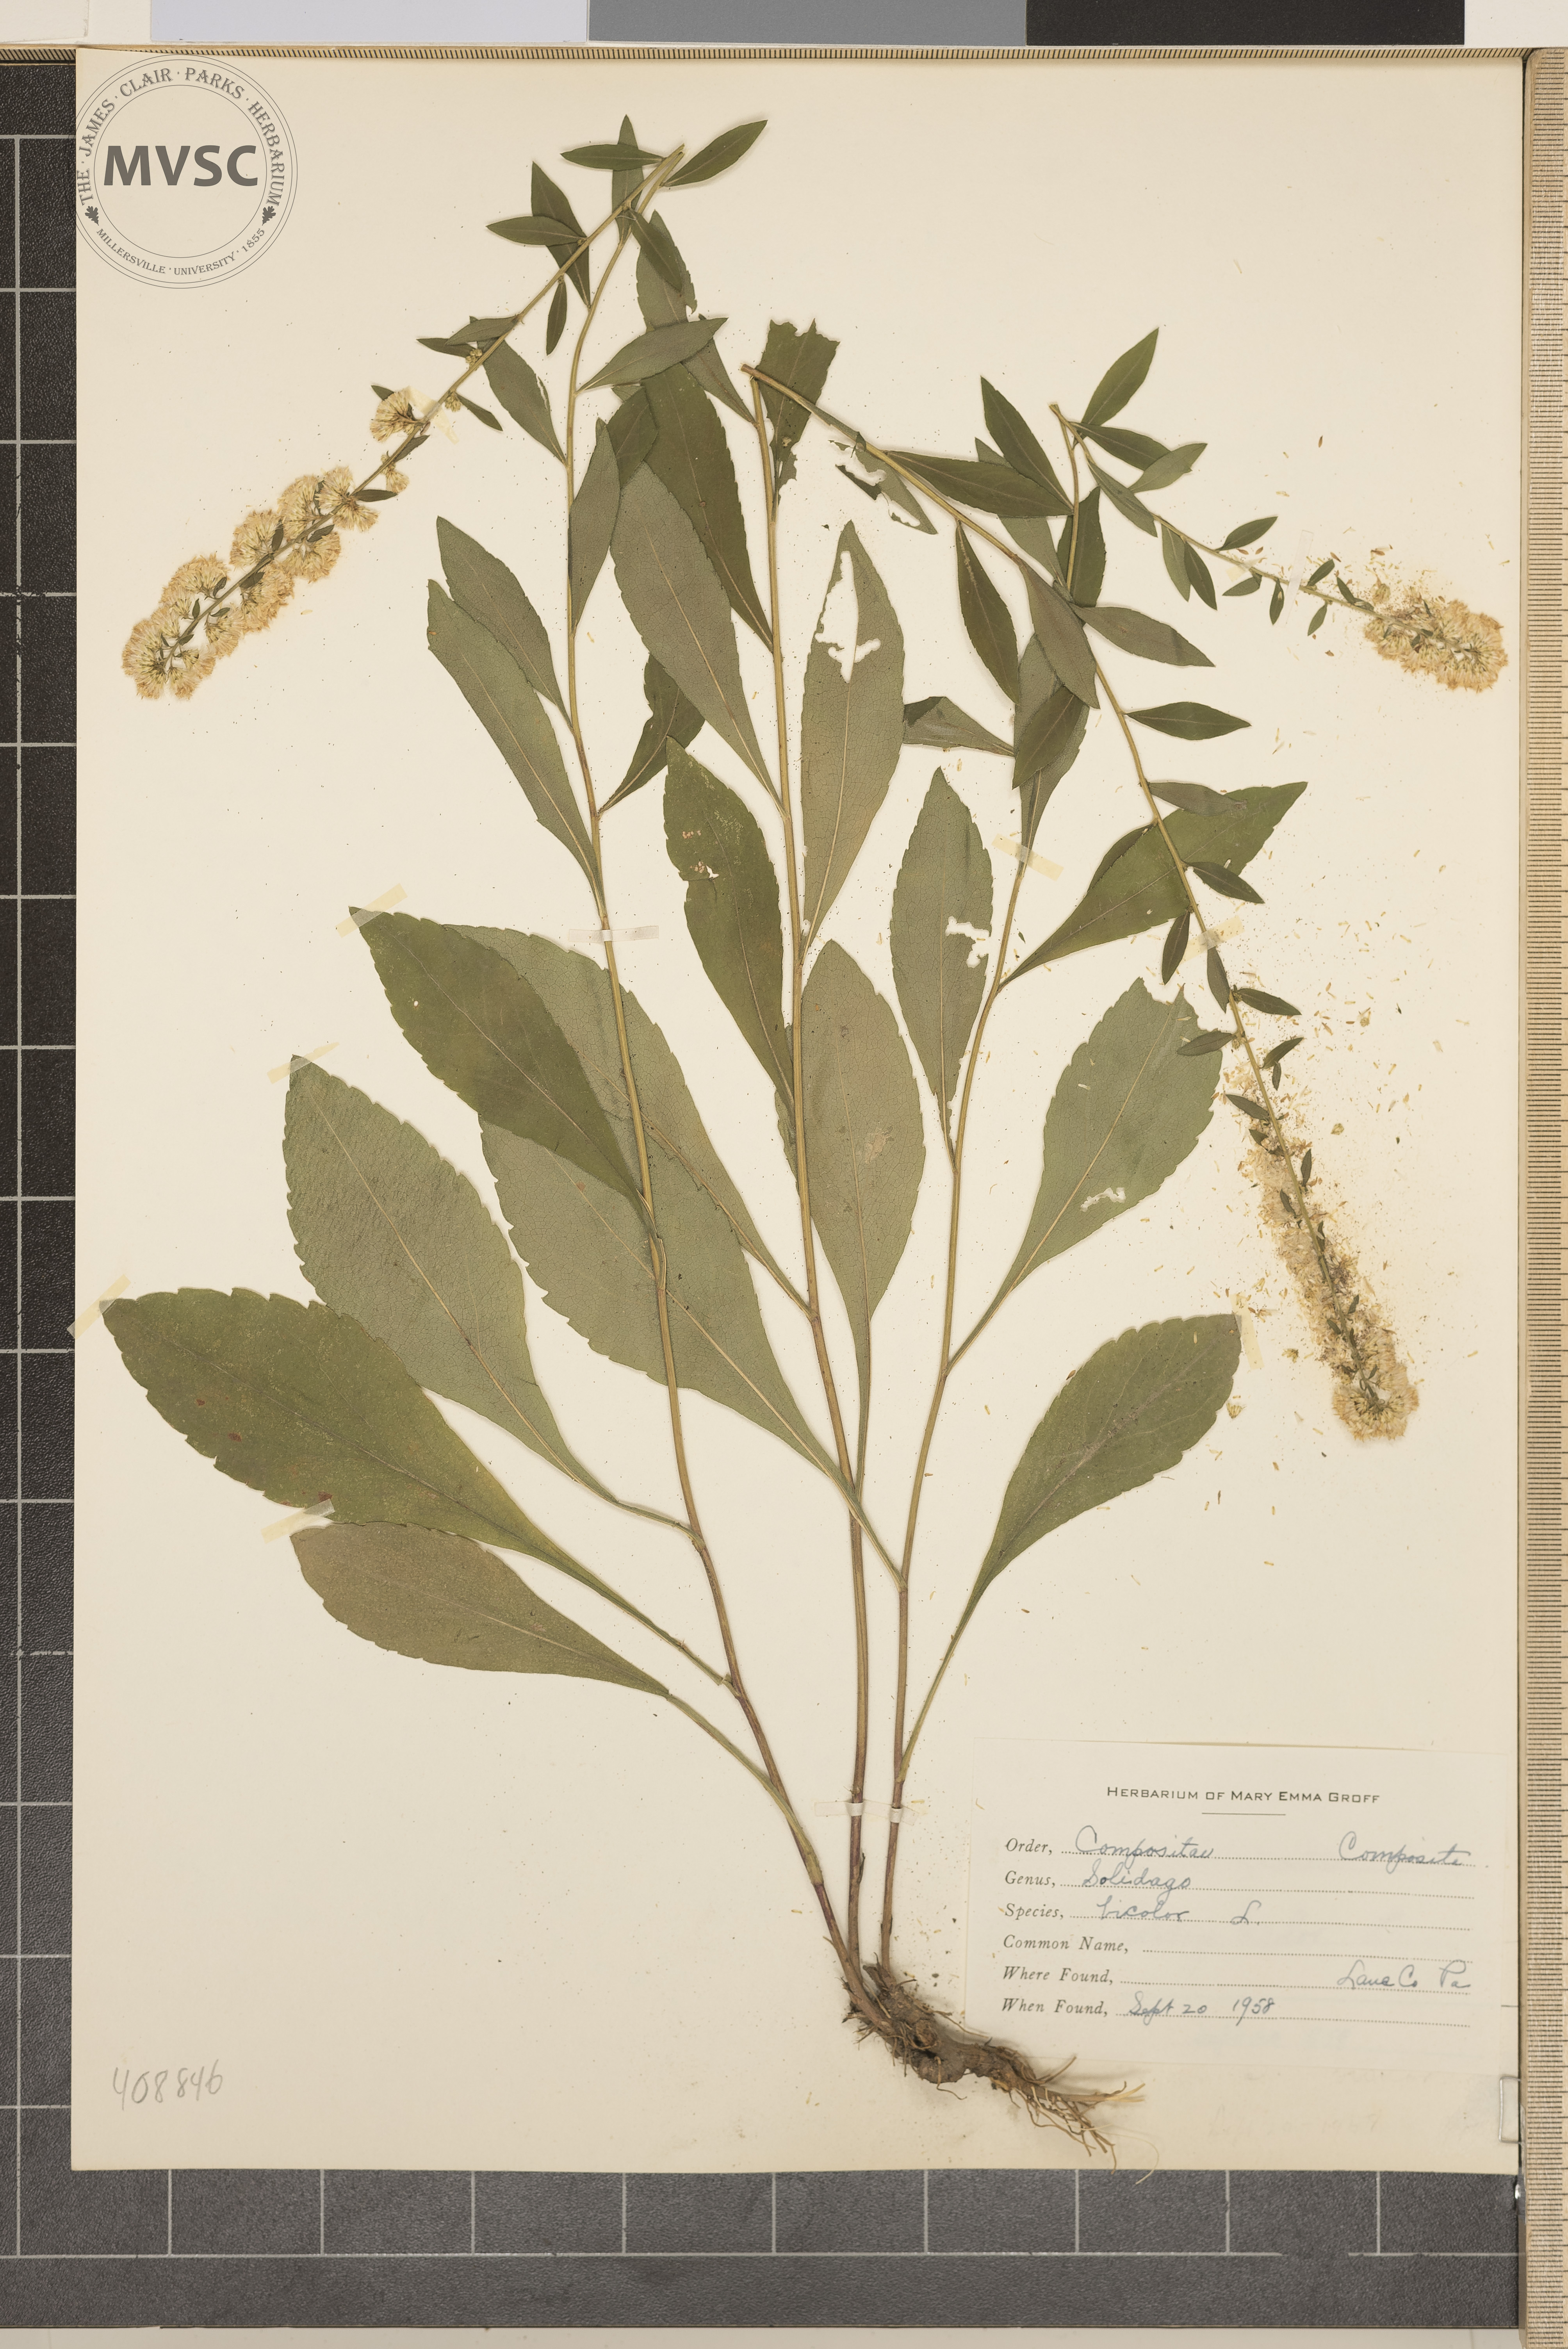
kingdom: Plantae
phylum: Tracheophyta
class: Magnoliopsida
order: Asterales
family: Asteraceae
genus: Solidago
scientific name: Solidago bicolor
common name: Silverrod
